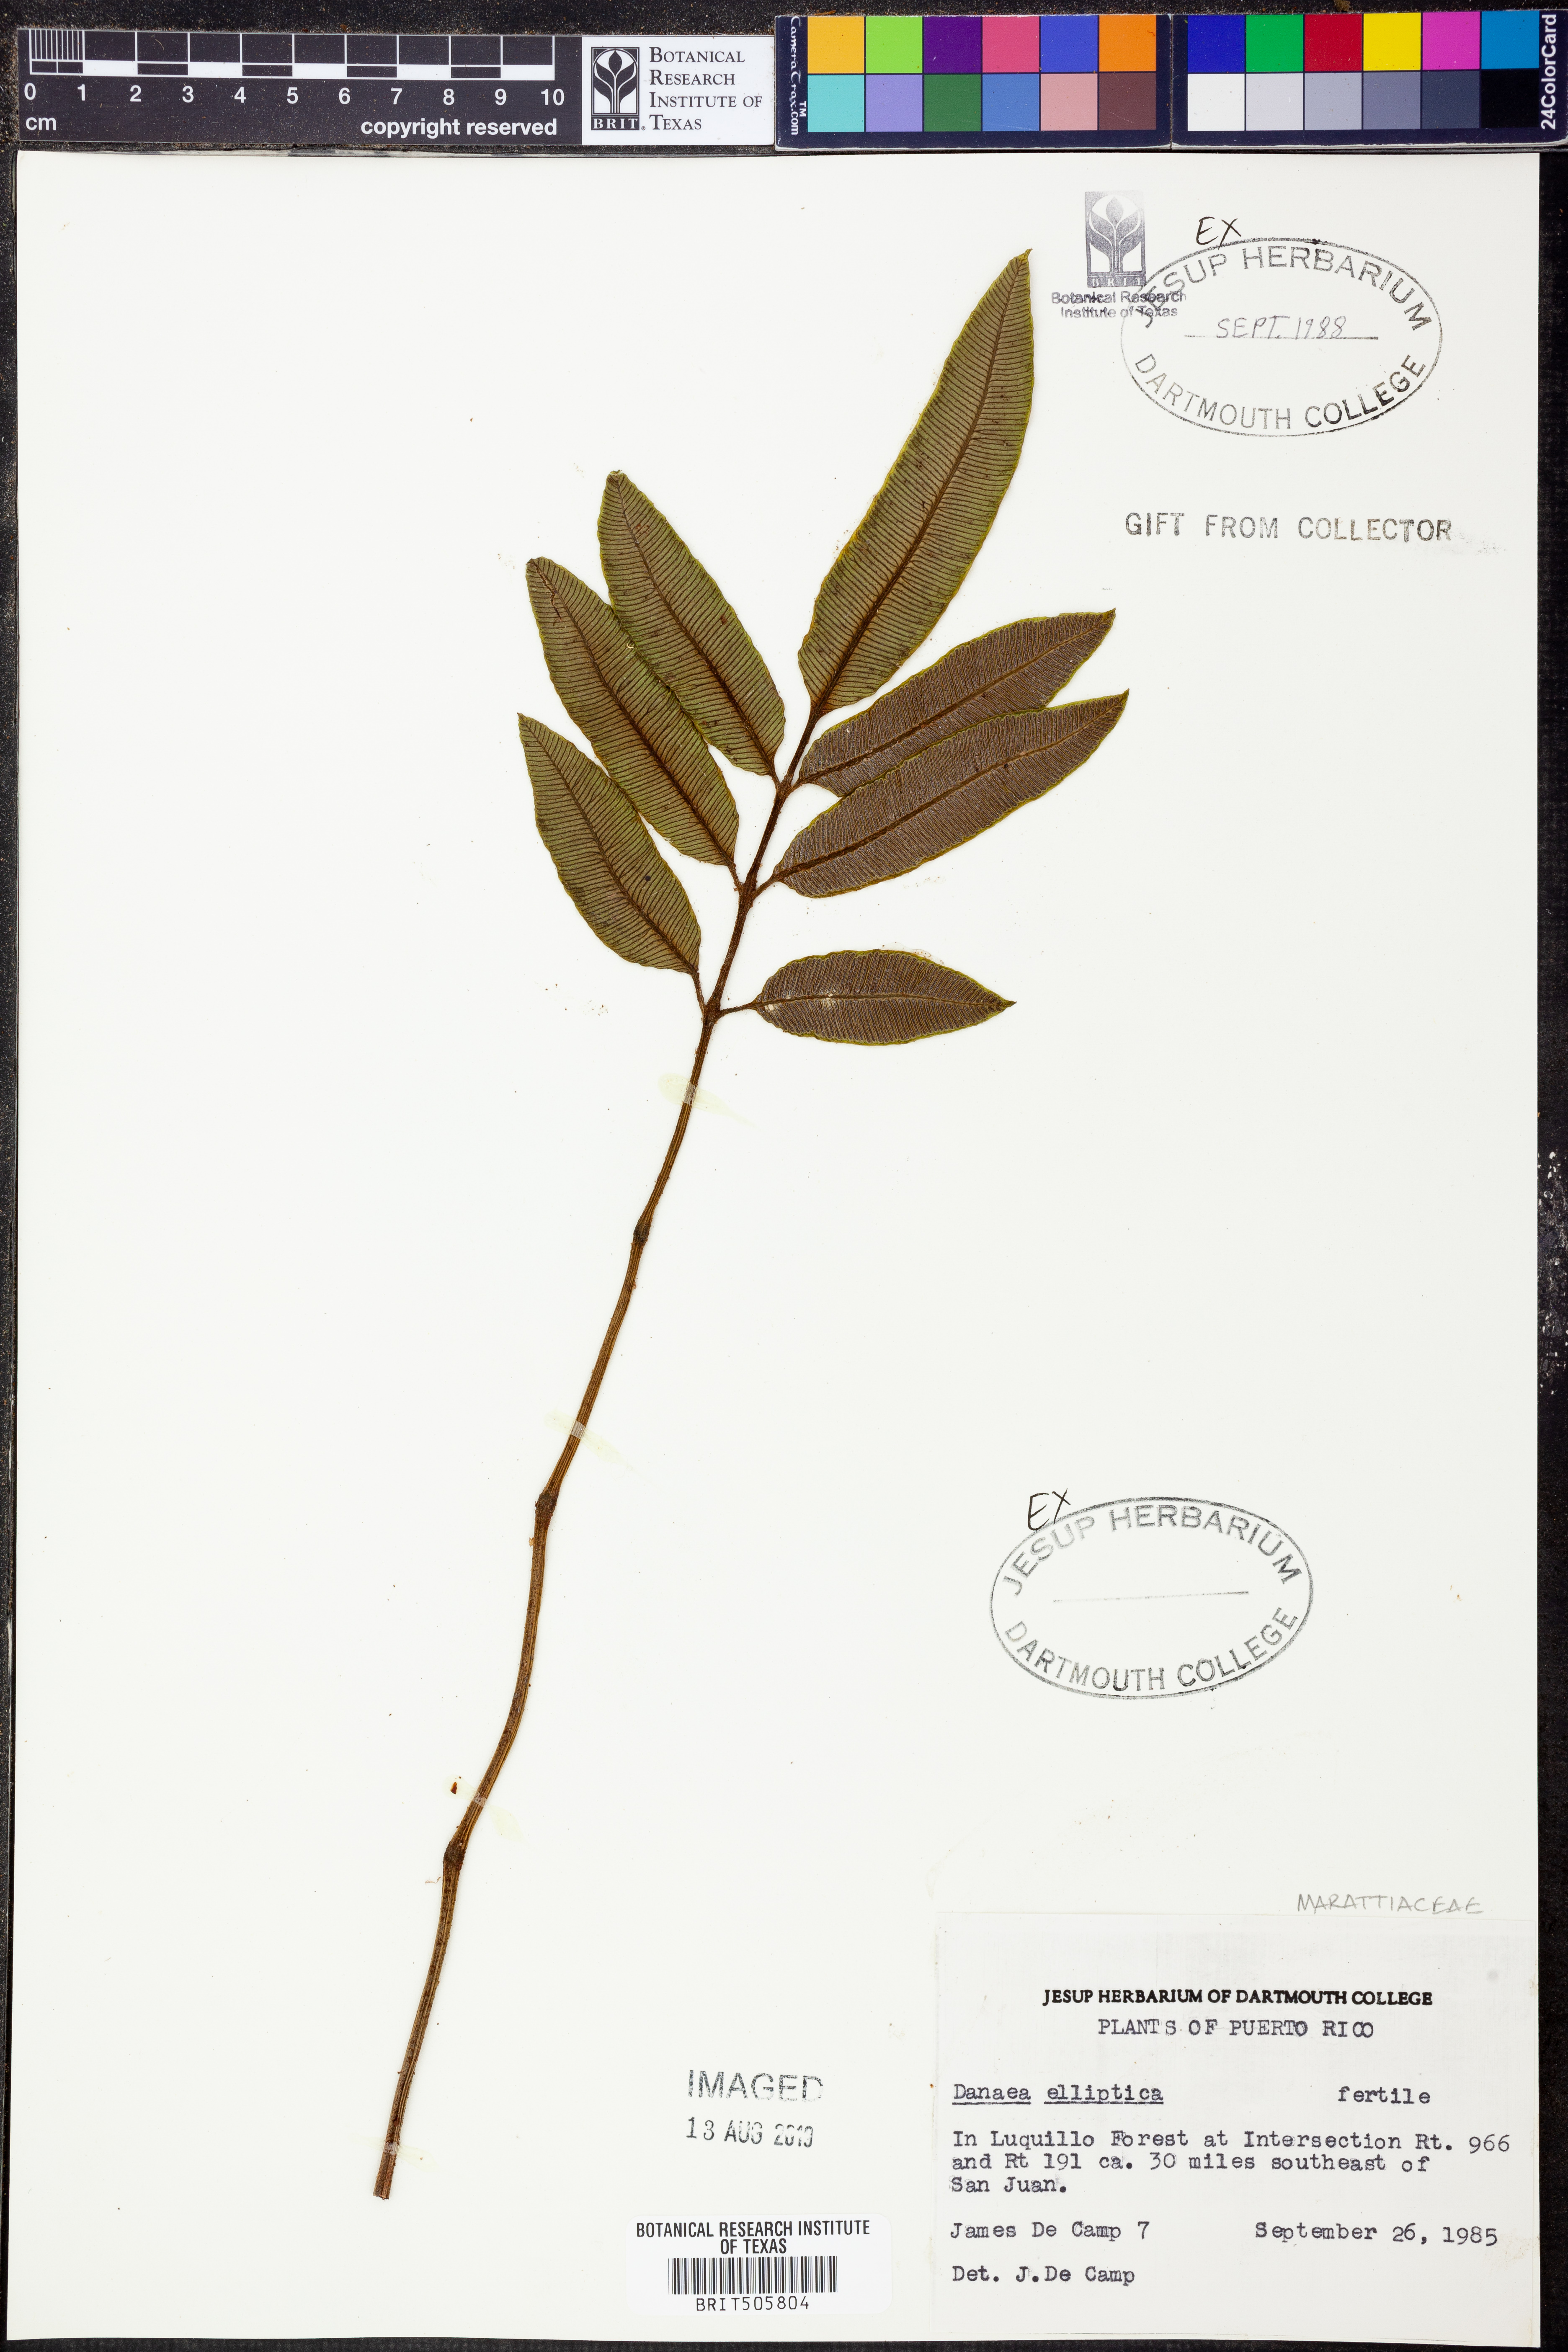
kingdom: Plantae
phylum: Tracheophyta
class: Polypodiopsida
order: Marattiales
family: Marattiaceae
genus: Danaea
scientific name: Danaea nodosa
